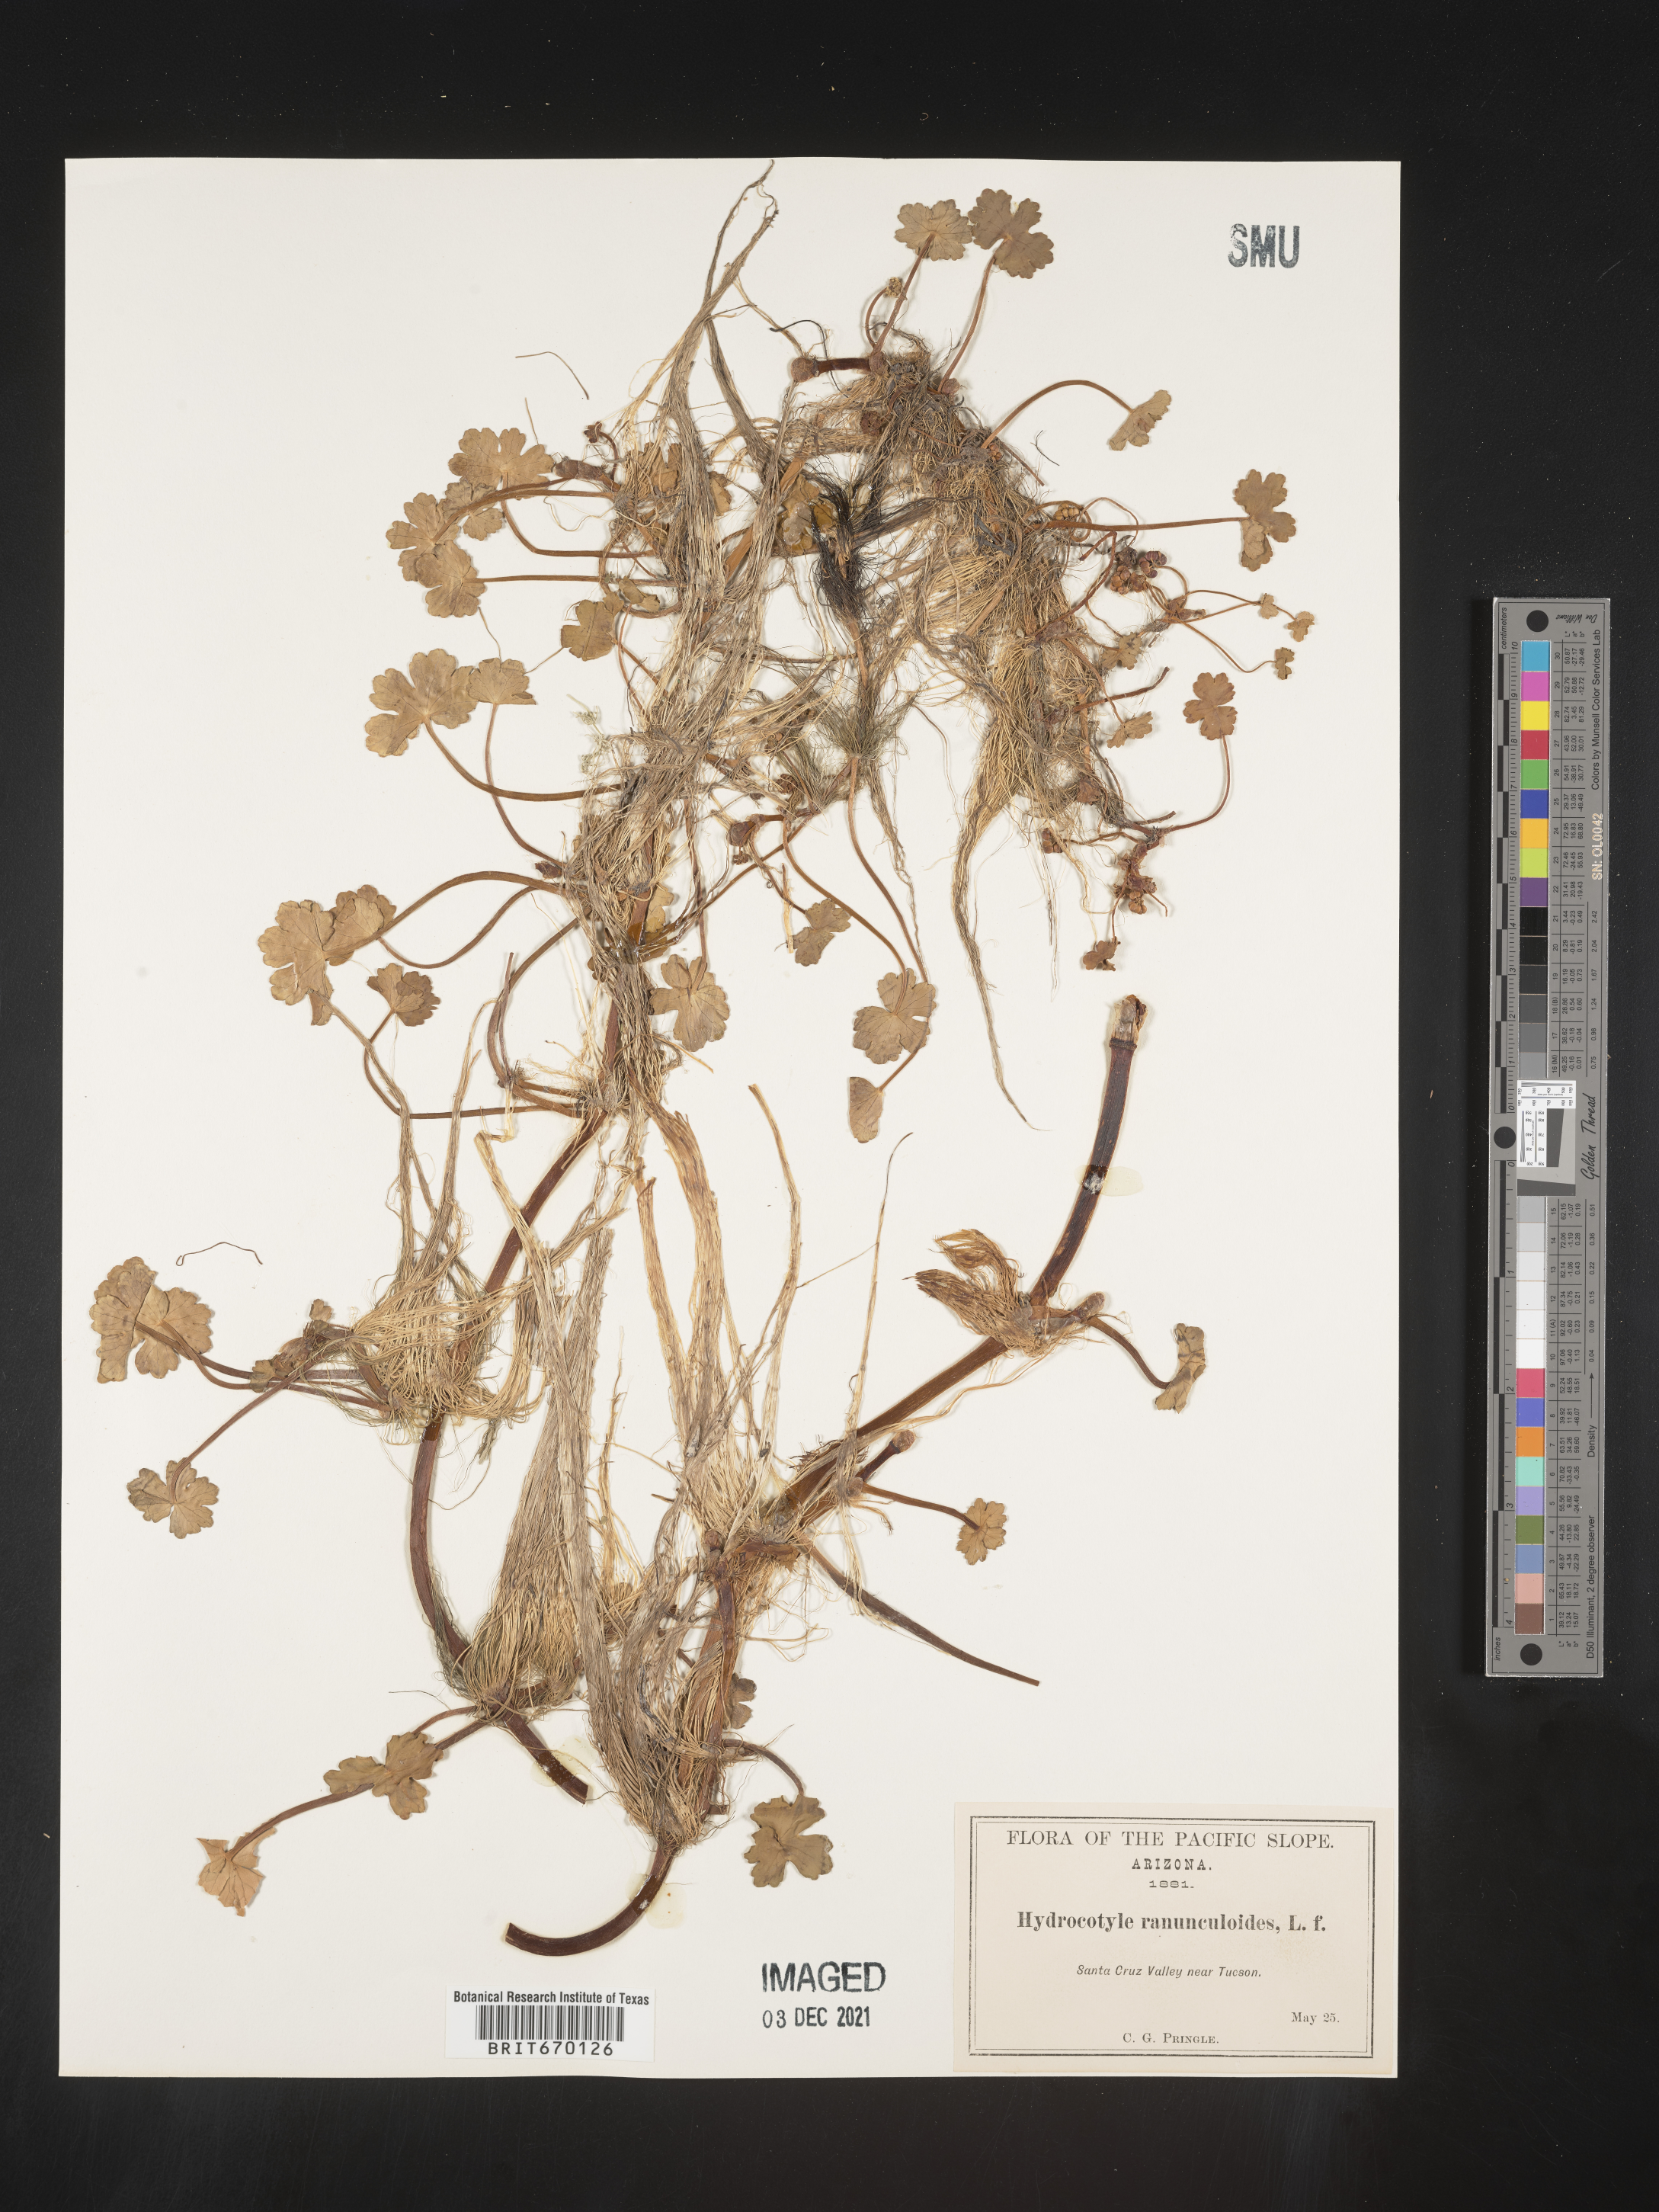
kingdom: Plantae
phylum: Tracheophyta
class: Magnoliopsida
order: Apiales
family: Araliaceae
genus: Hydrocotyle
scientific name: Hydrocotyle ranunculoides
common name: Floating pennywort
